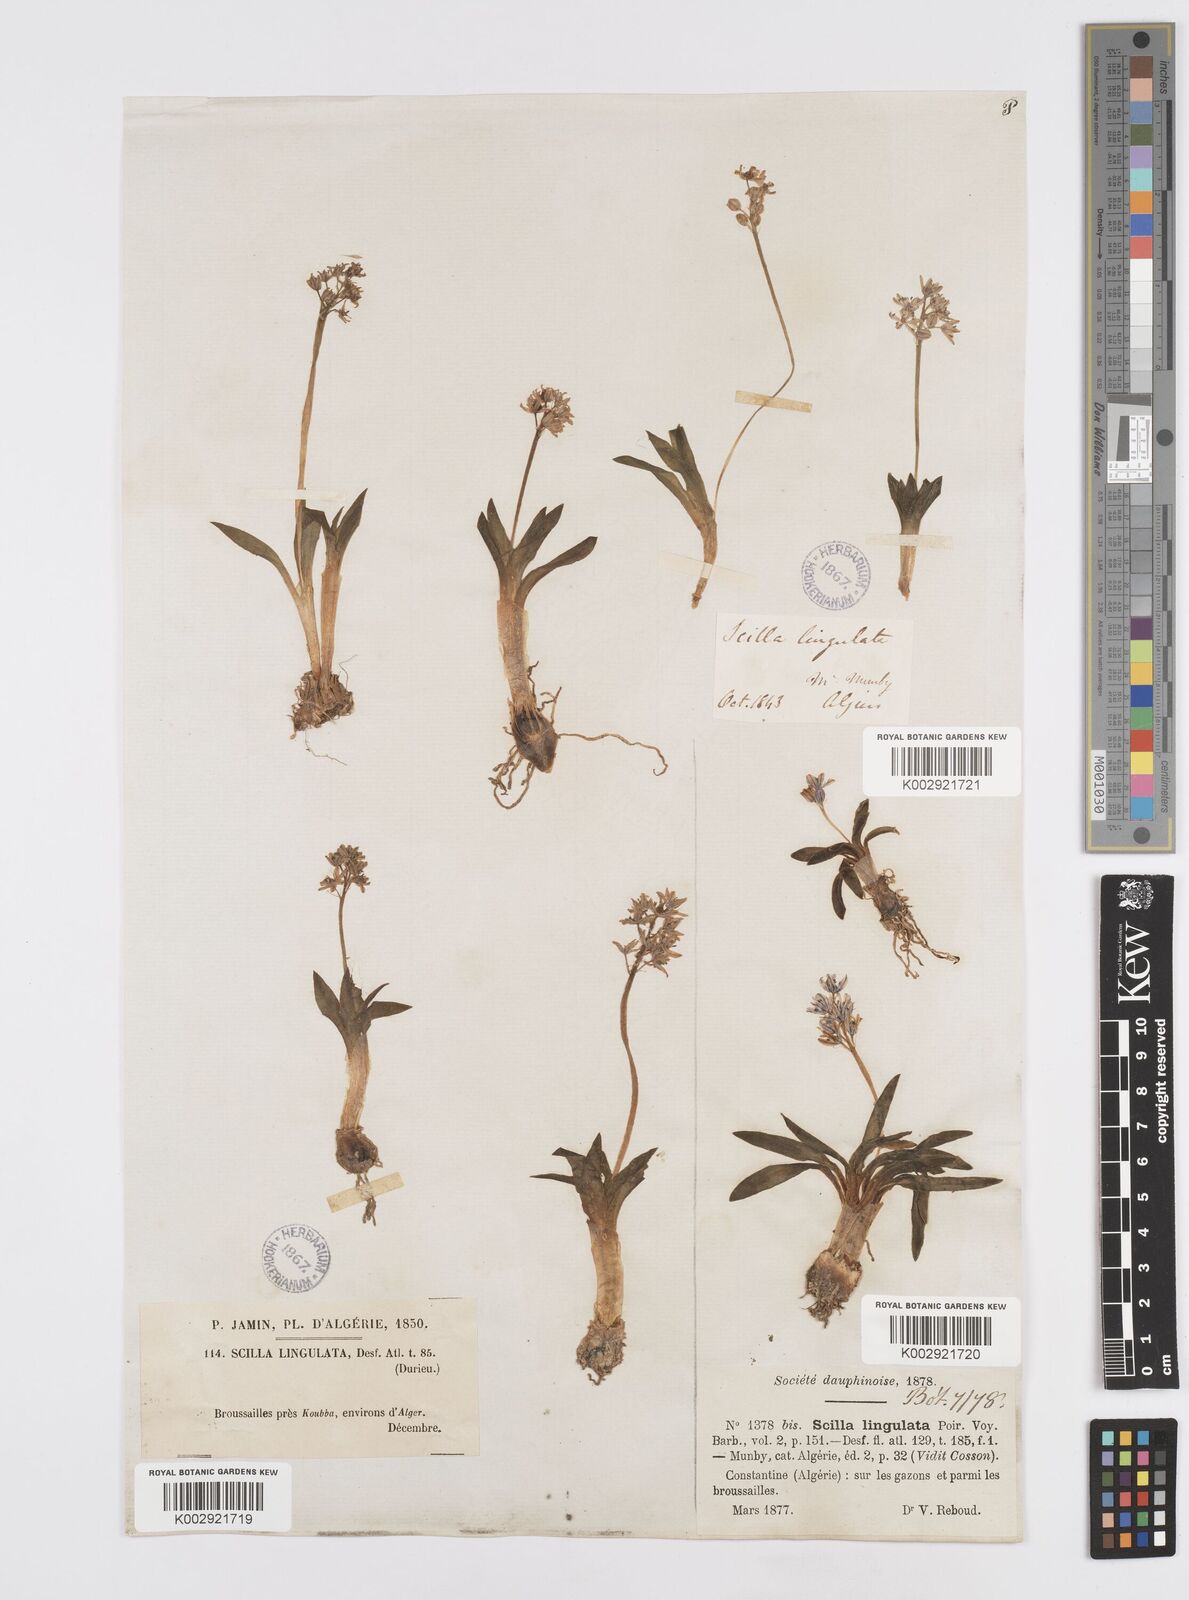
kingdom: Plantae
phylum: Tracheophyta
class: Liliopsida
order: Asparagales
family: Asparagaceae
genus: Hyacinthoides
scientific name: Hyacinthoides lingulata
